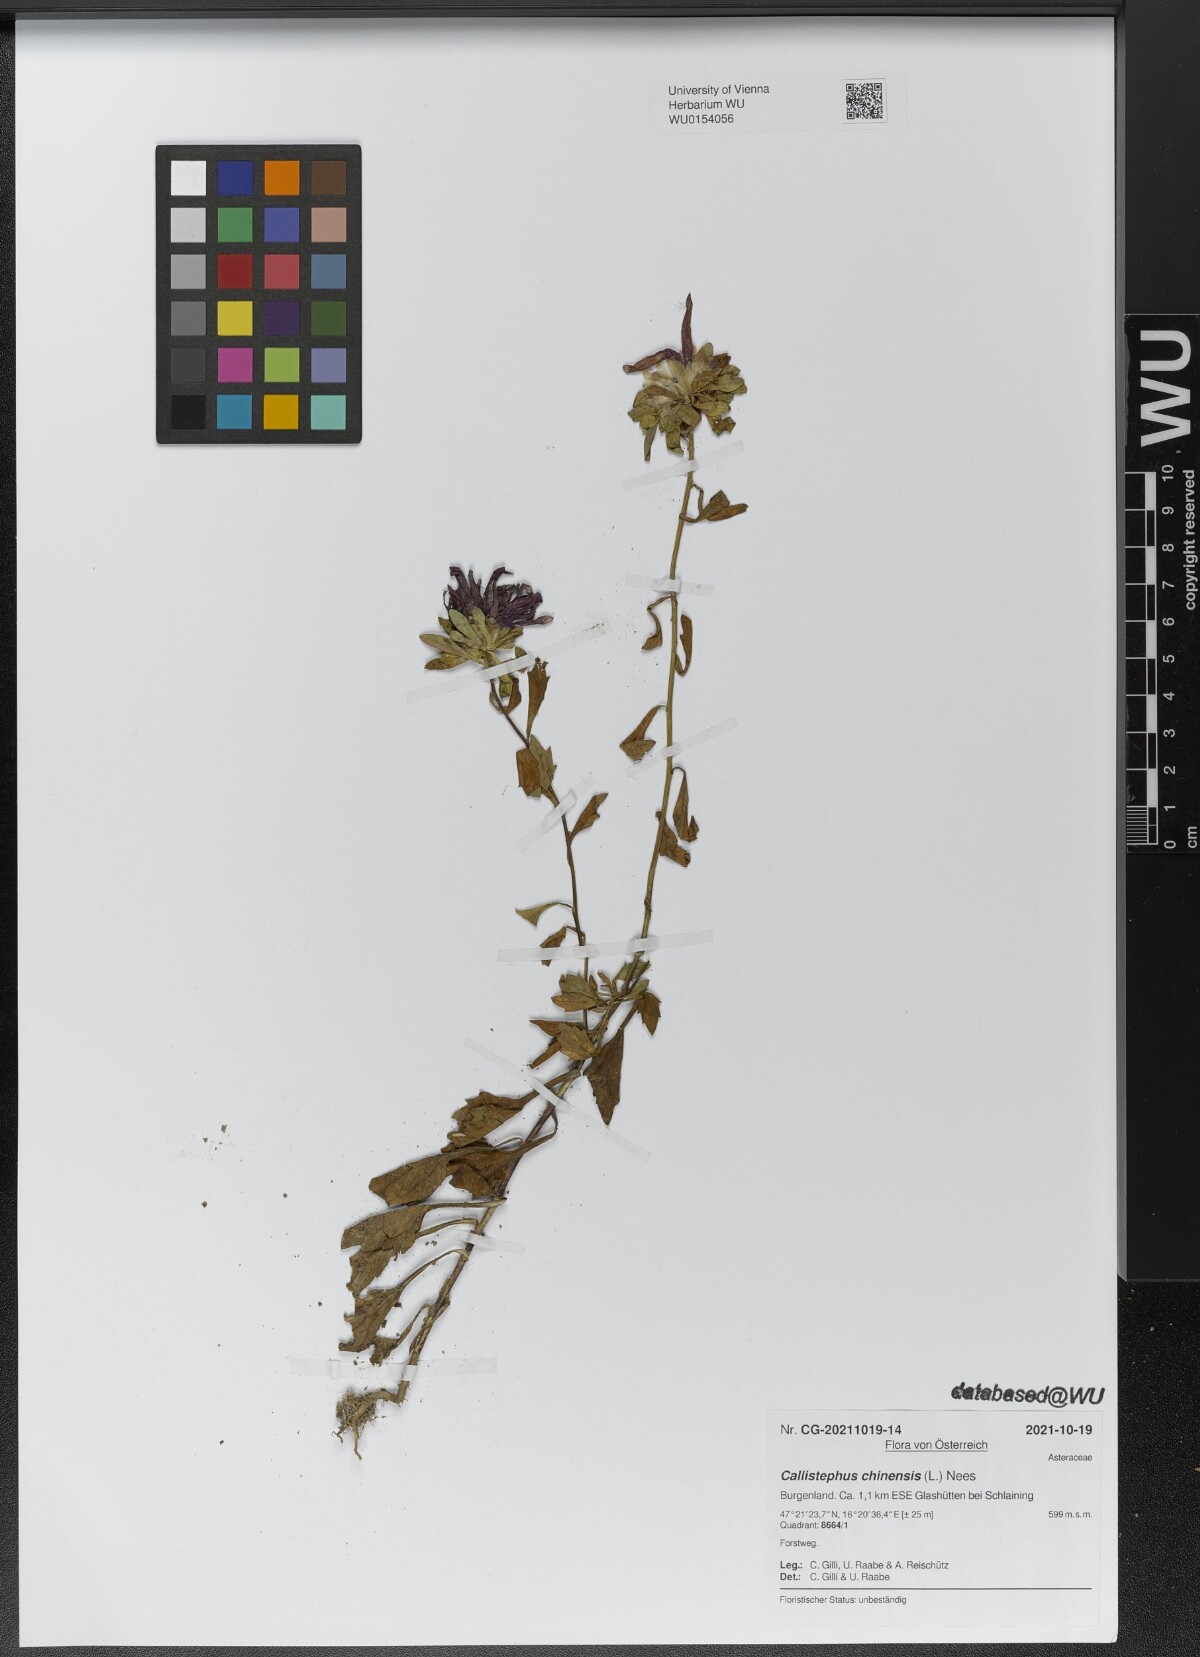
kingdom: Plantae
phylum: Tracheophyta
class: Magnoliopsida
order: Asterales
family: Asteraceae
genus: Callistephus
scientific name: Callistephus chinensis
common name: China aster
